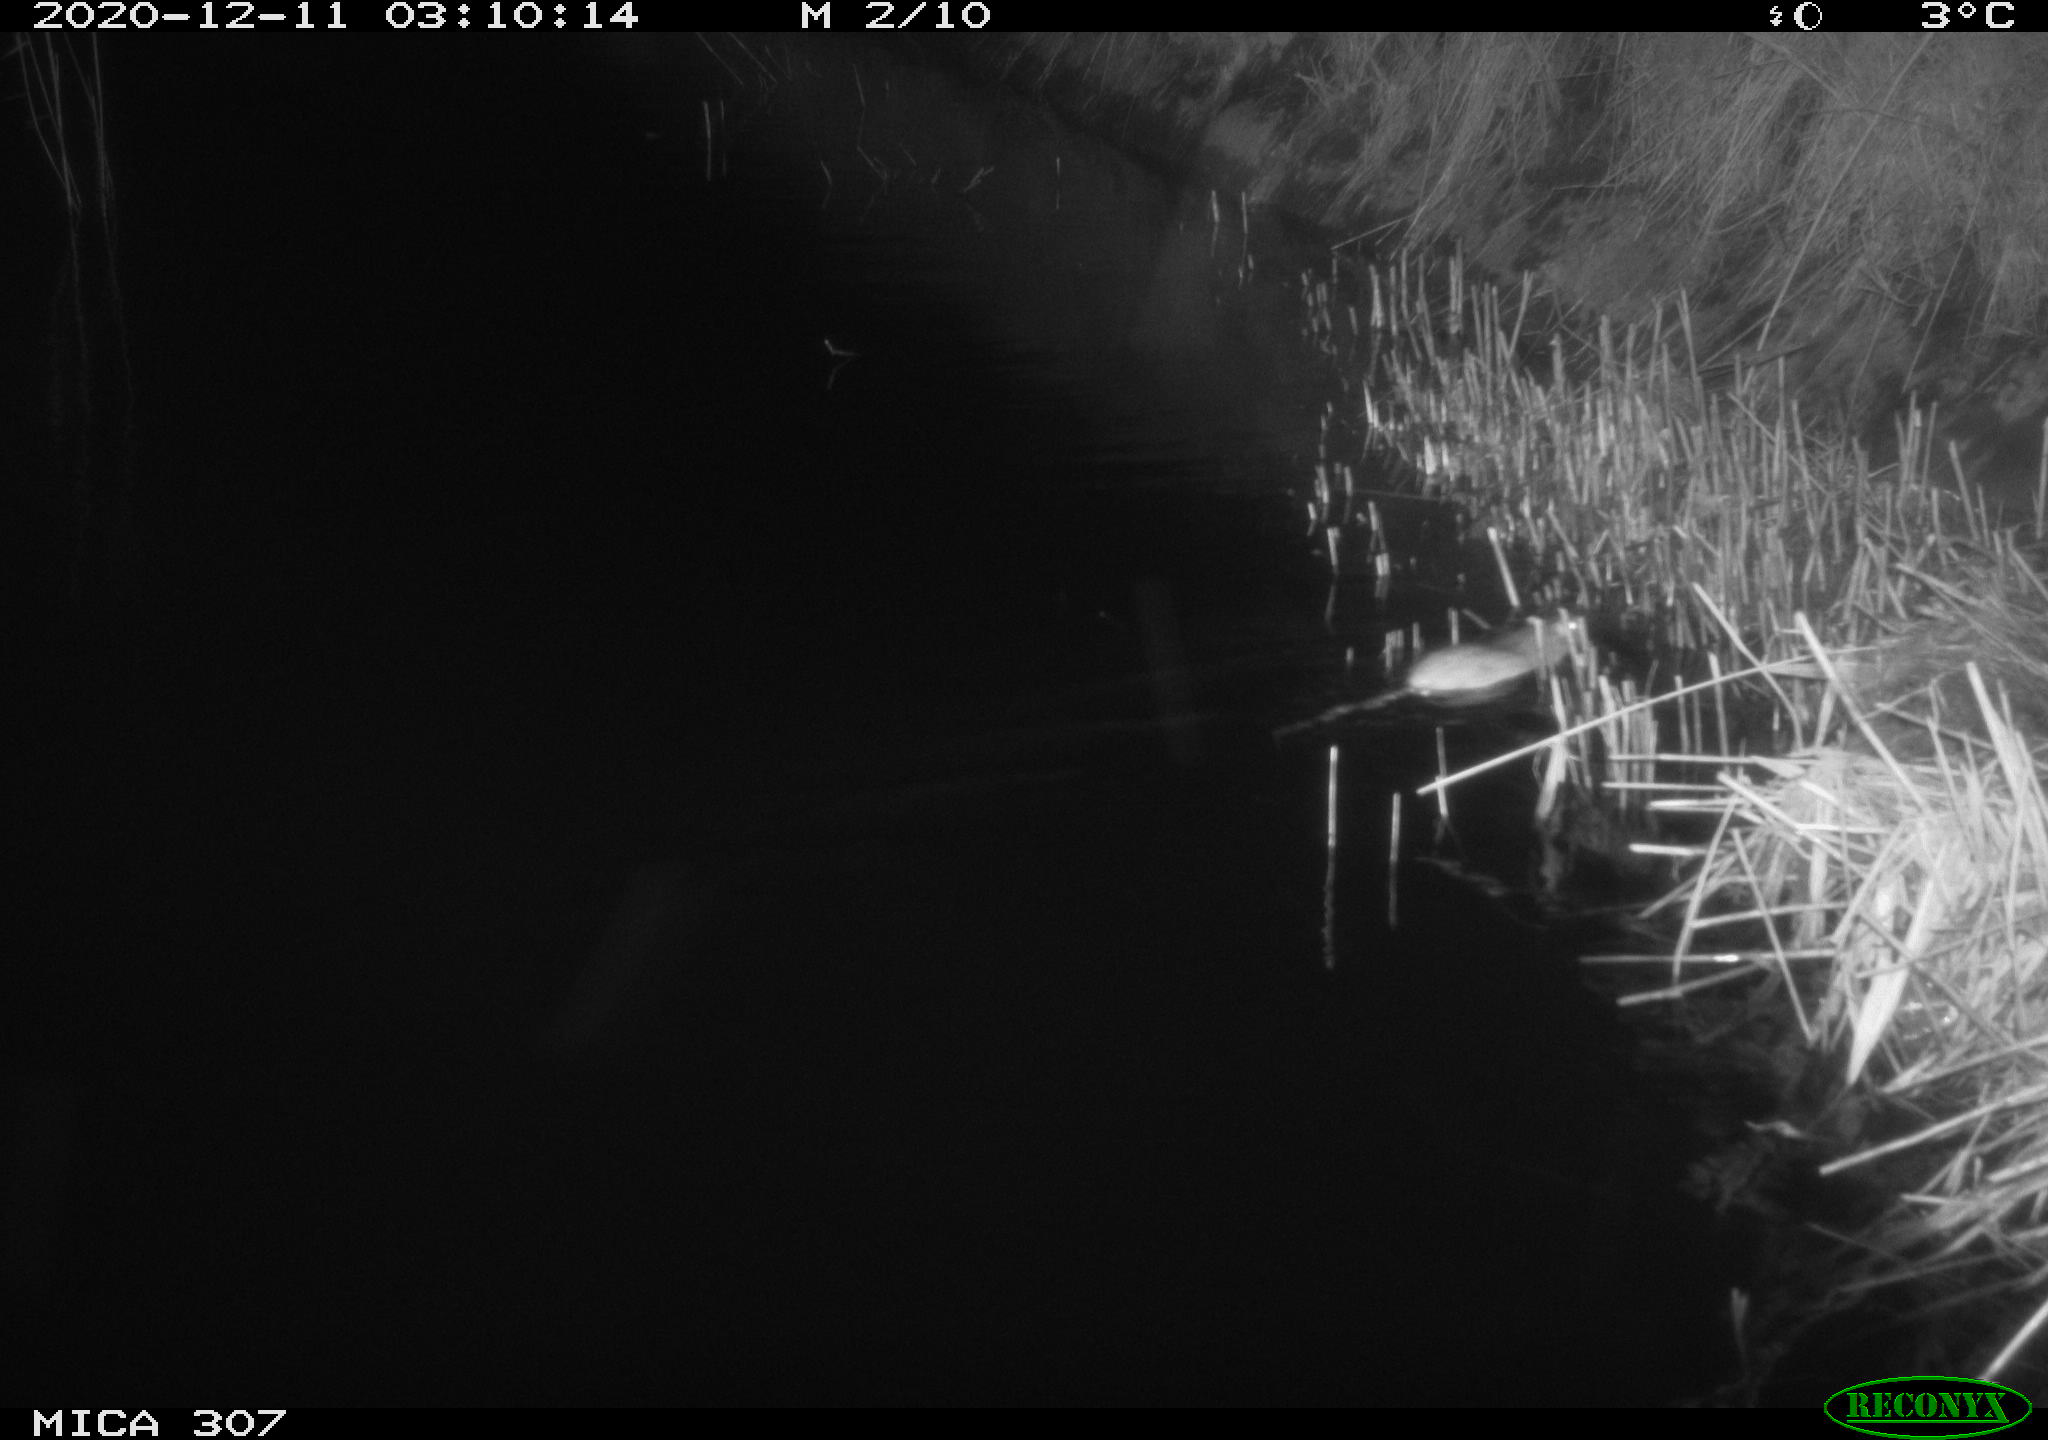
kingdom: Animalia
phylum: Chordata
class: Mammalia
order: Rodentia
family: Muridae
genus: Rattus
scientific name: Rattus norvegicus
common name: Brown rat
